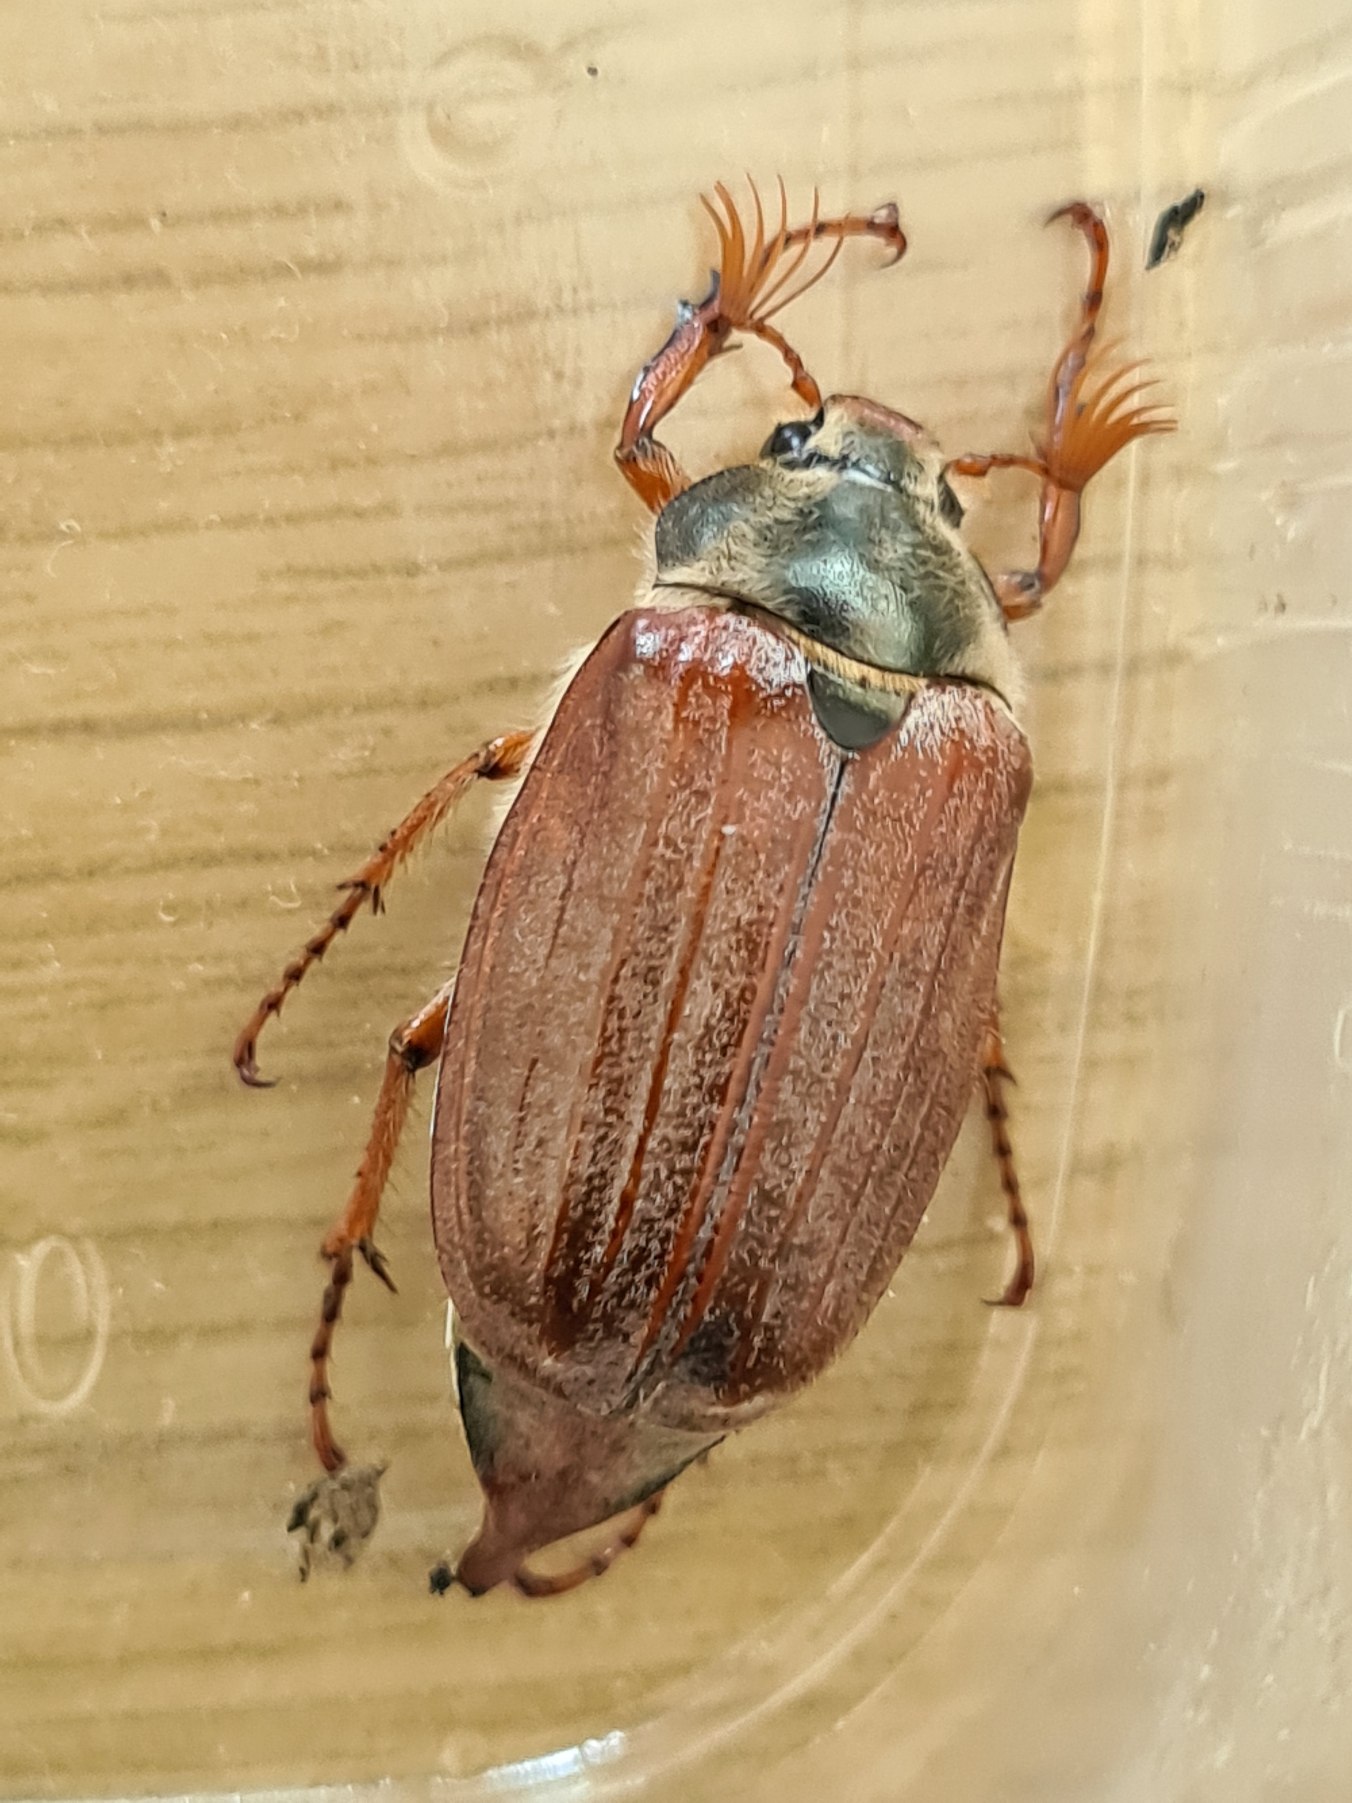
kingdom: Animalia
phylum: Arthropoda
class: Insecta
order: Coleoptera
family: Scarabaeidae
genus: Melolontha
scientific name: Melolontha melolontha
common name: Almindelig oldenborre
